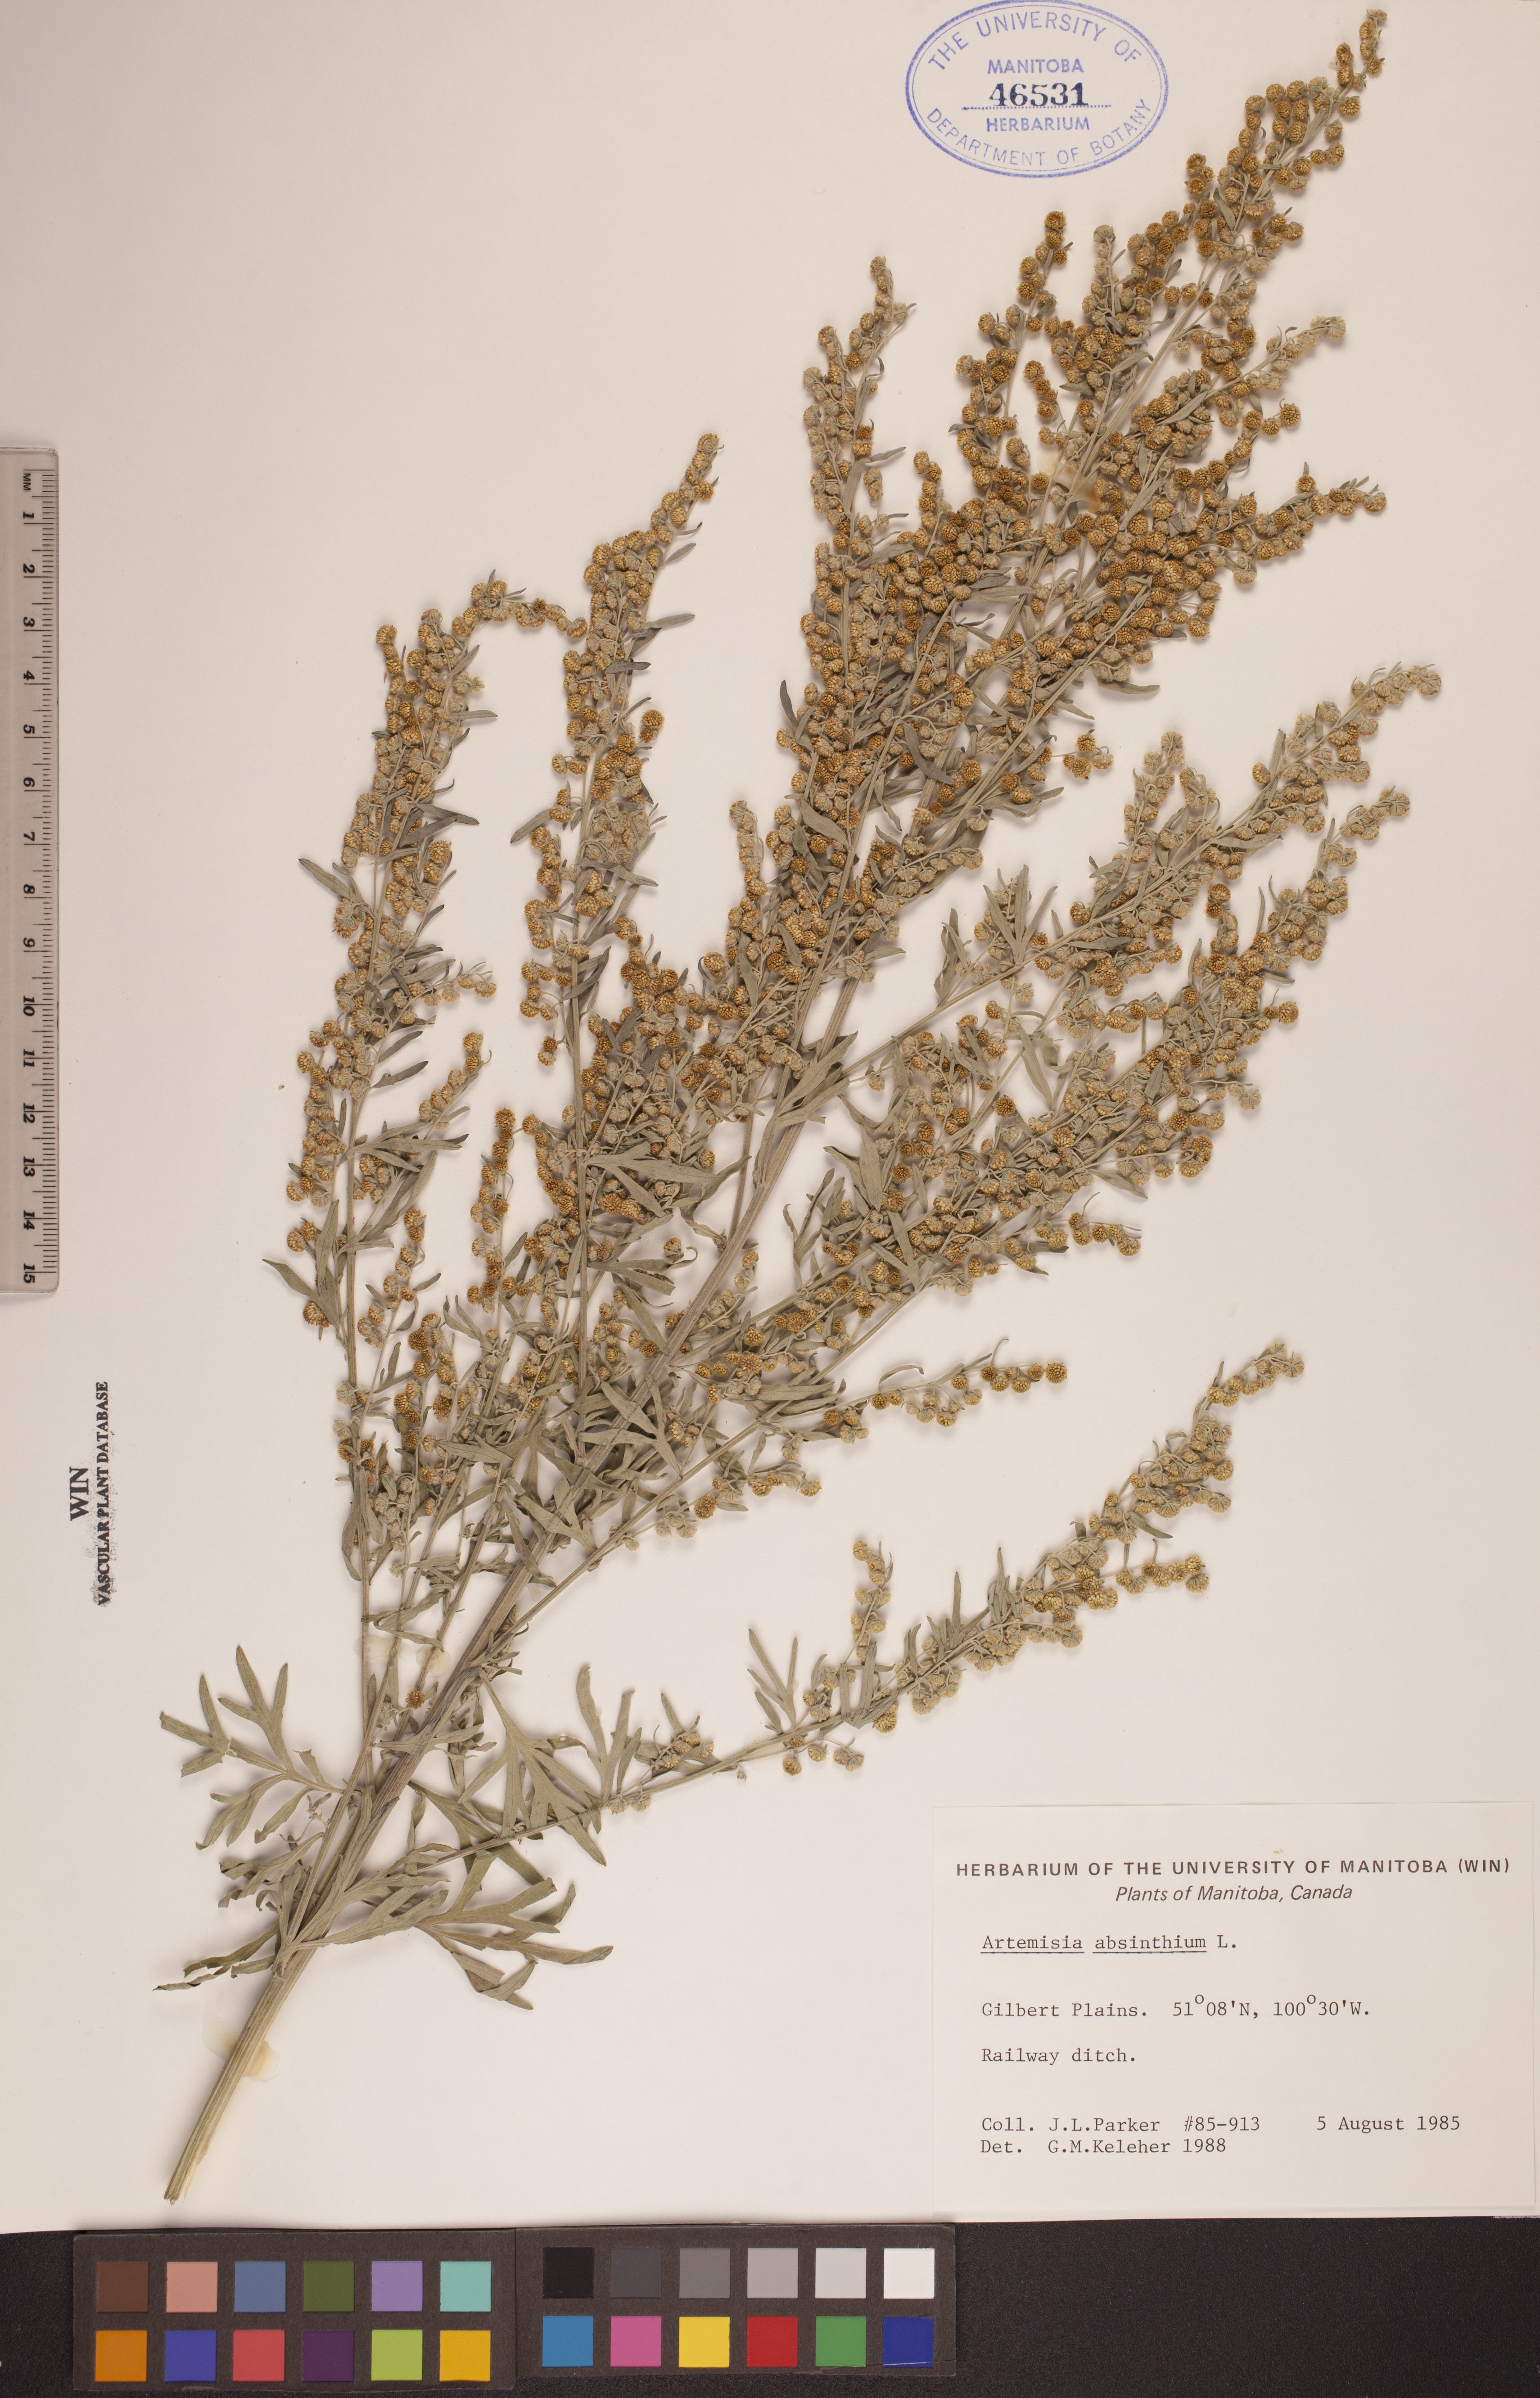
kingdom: Plantae
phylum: Tracheophyta
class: Magnoliopsida
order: Asterales
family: Asteraceae
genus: Artemisia
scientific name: Artemisia absinthium
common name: Wormwood
